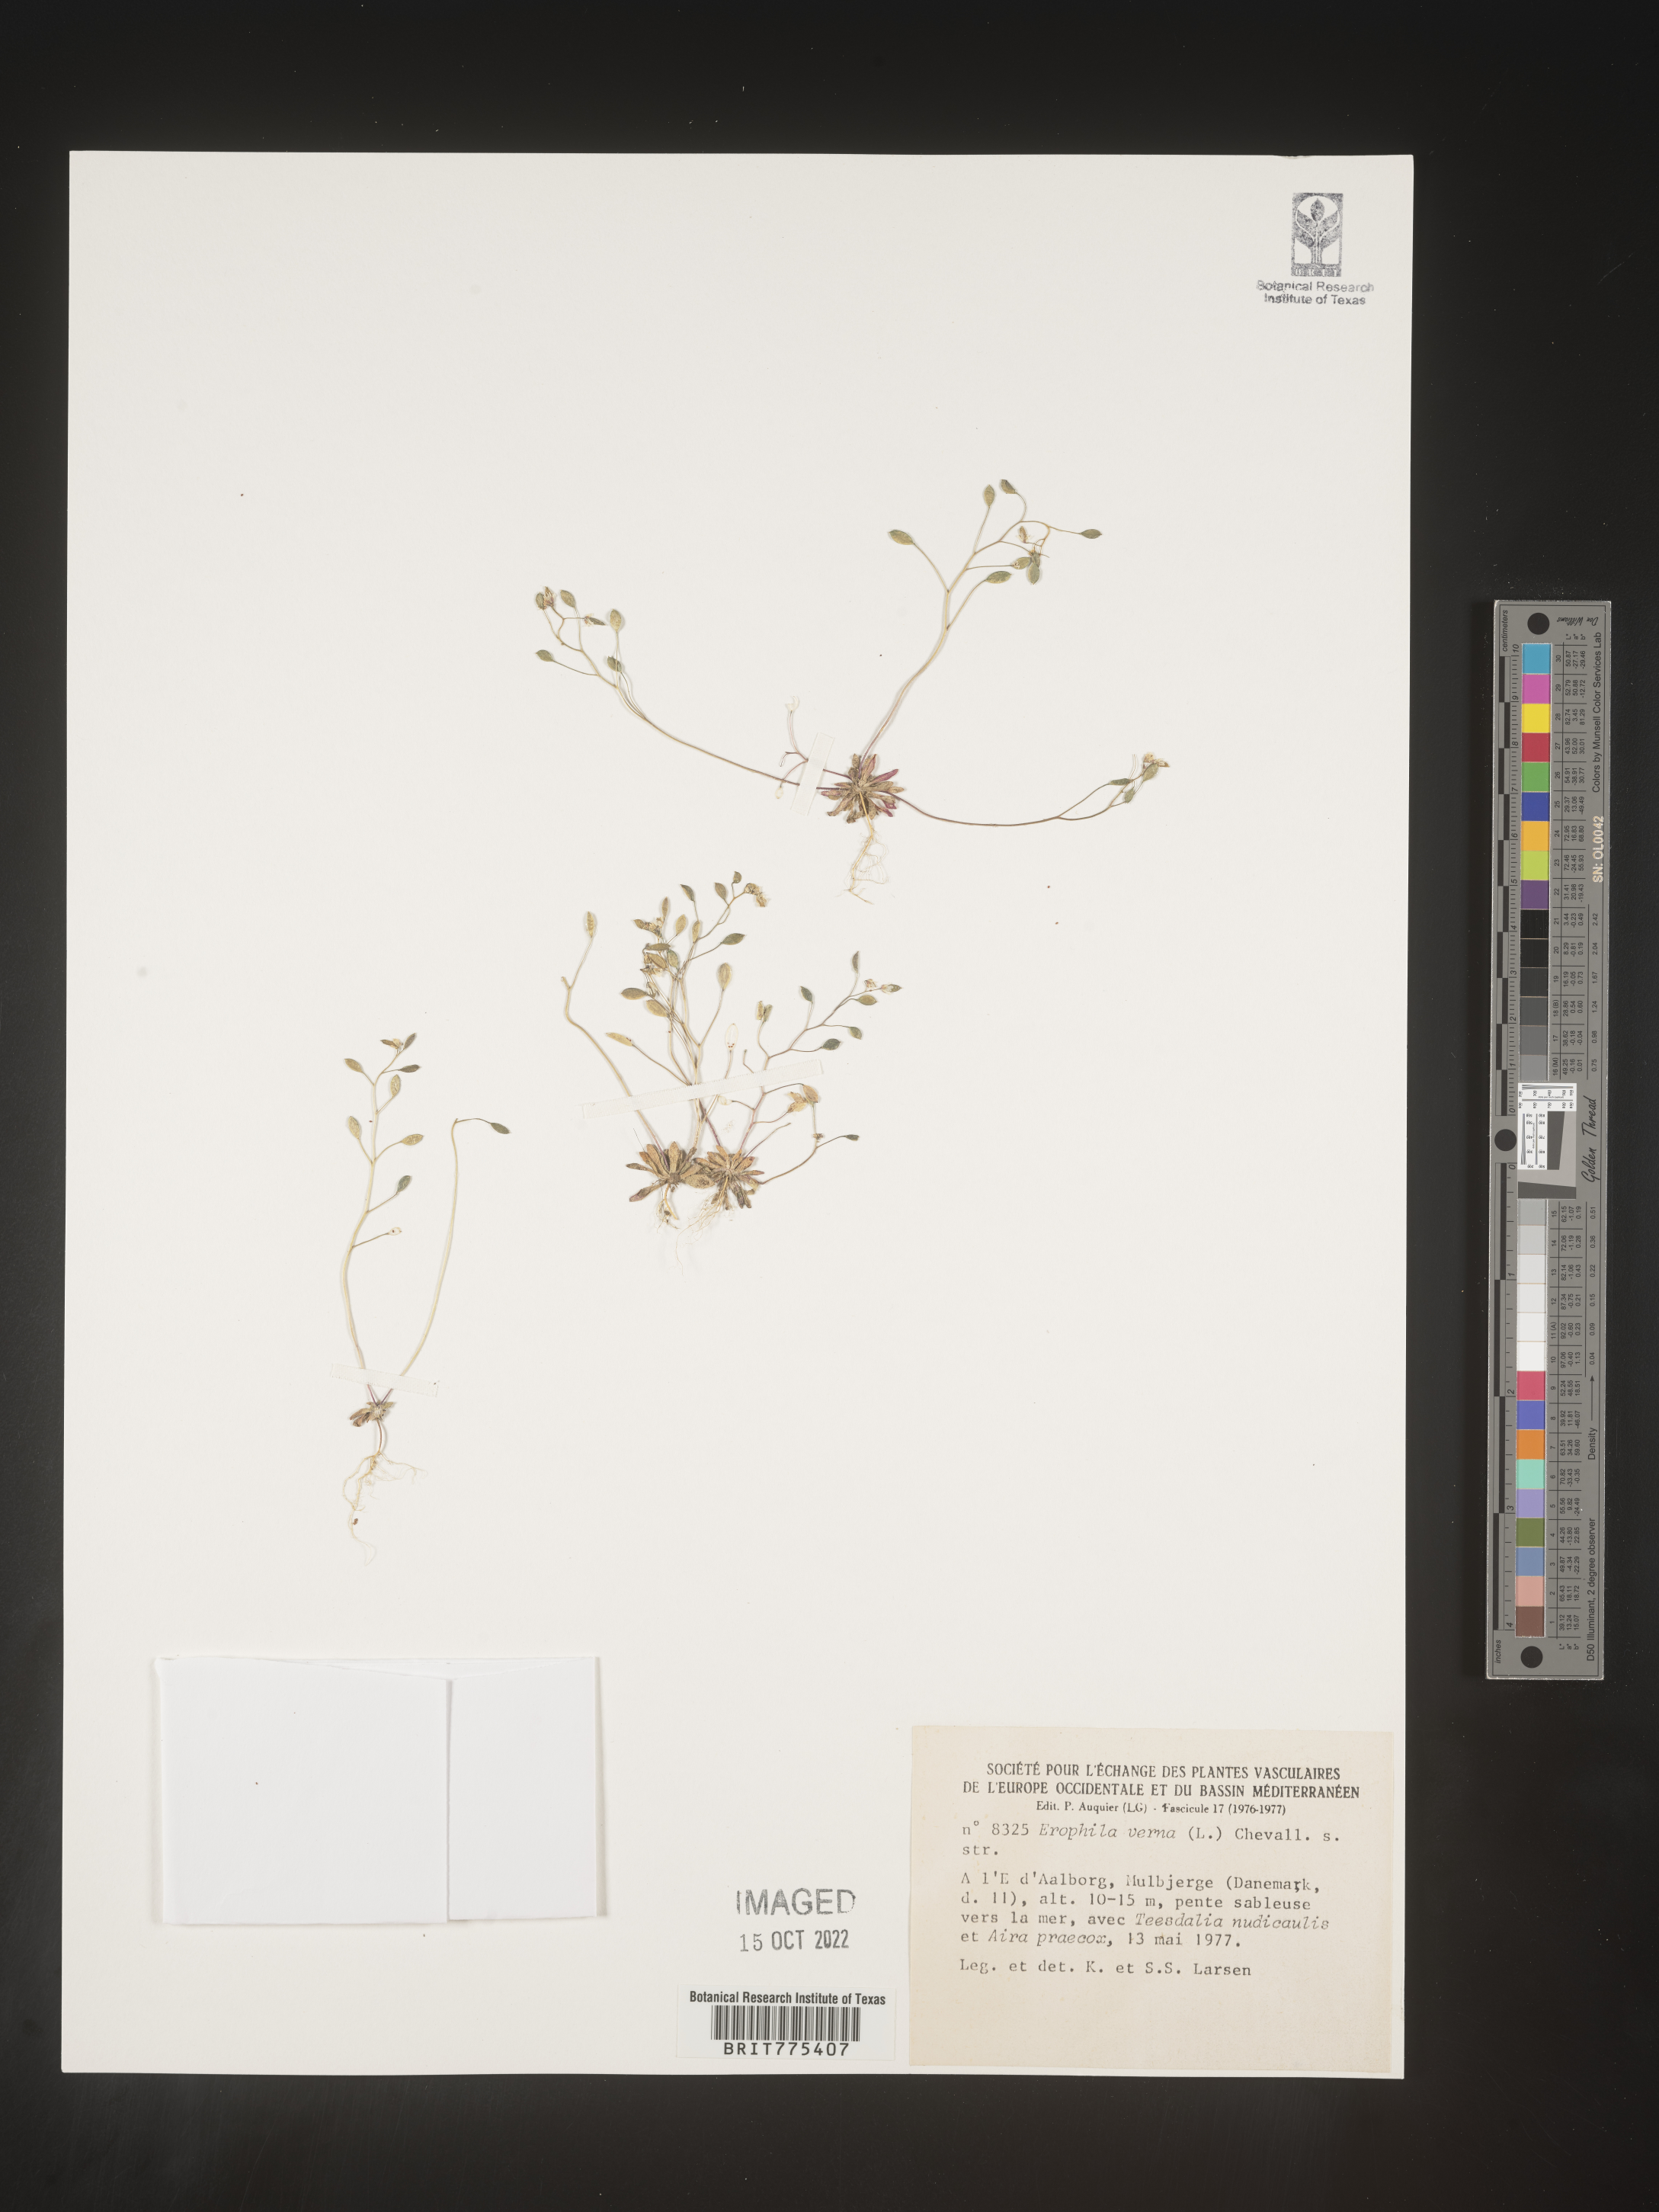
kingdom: Plantae
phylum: Tracheophyta
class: Magnoliopsida
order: Brassicales
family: Brassicaceae
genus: Draba
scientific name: Draba
